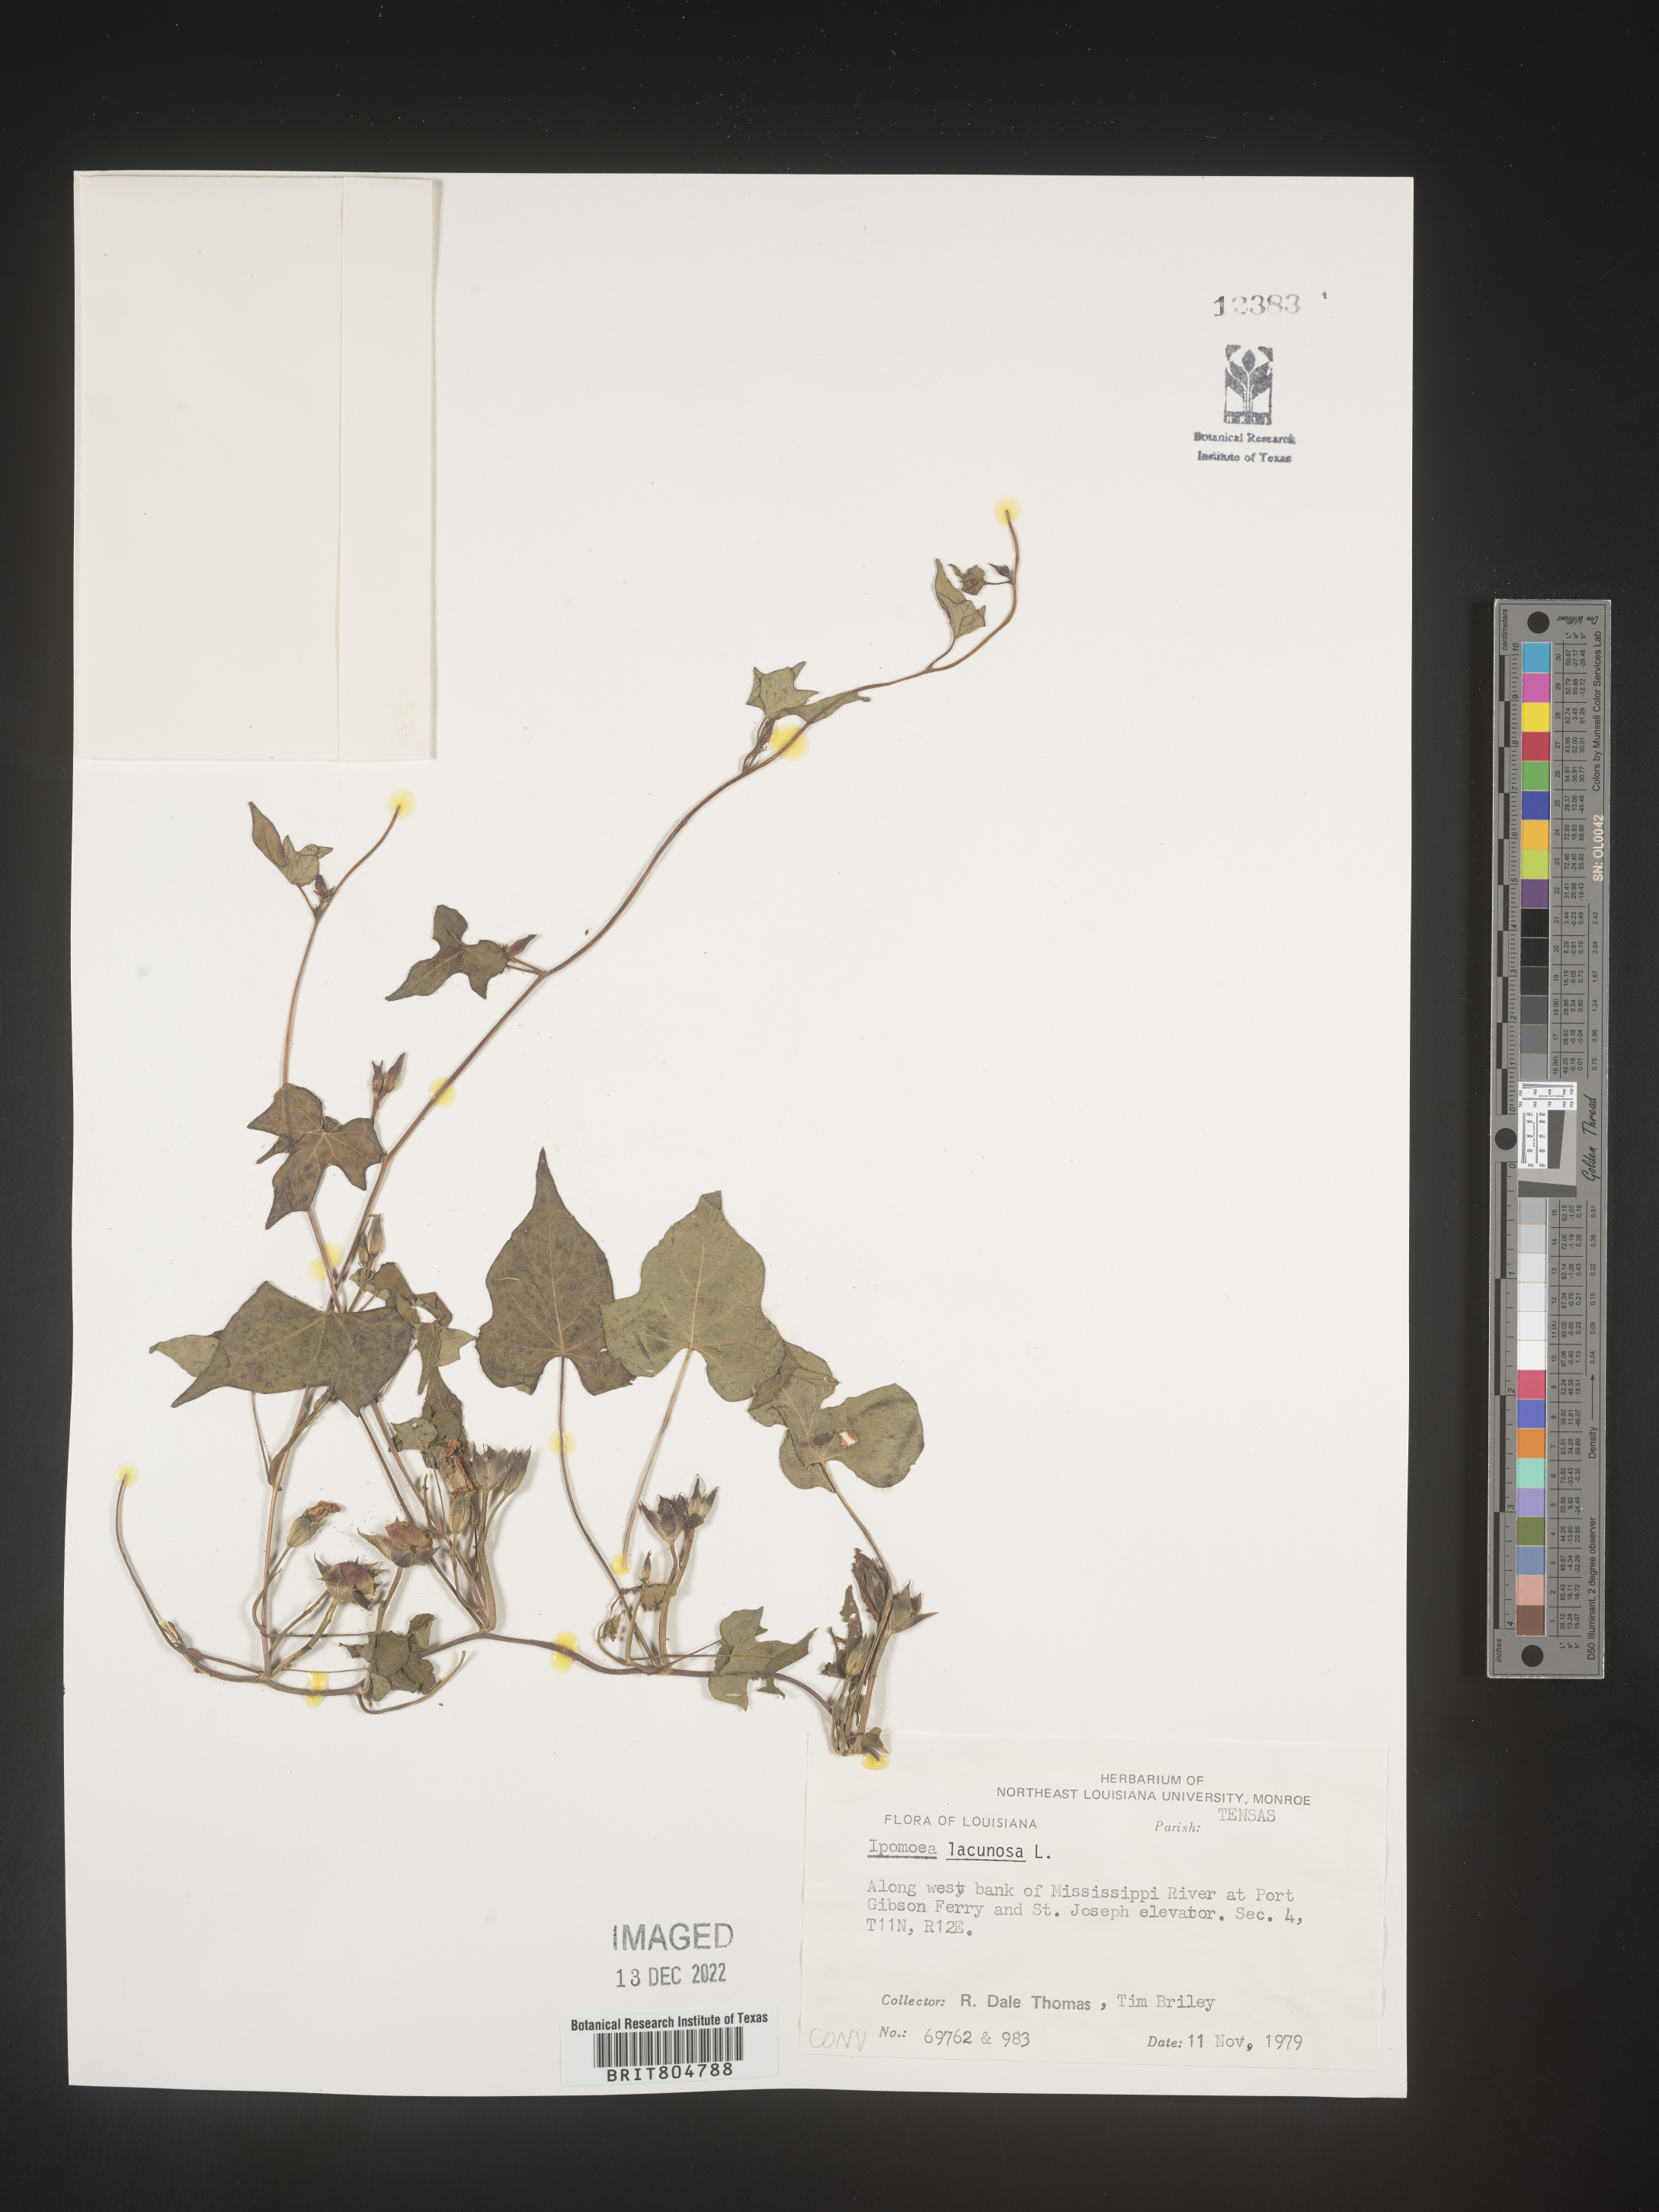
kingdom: Plantae
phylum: Tracheophyta
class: Magnoliopsida
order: Solanales
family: Convolvulaceae
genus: Ipomoea
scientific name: Ipomoea lacunosa
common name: White morning-glory
